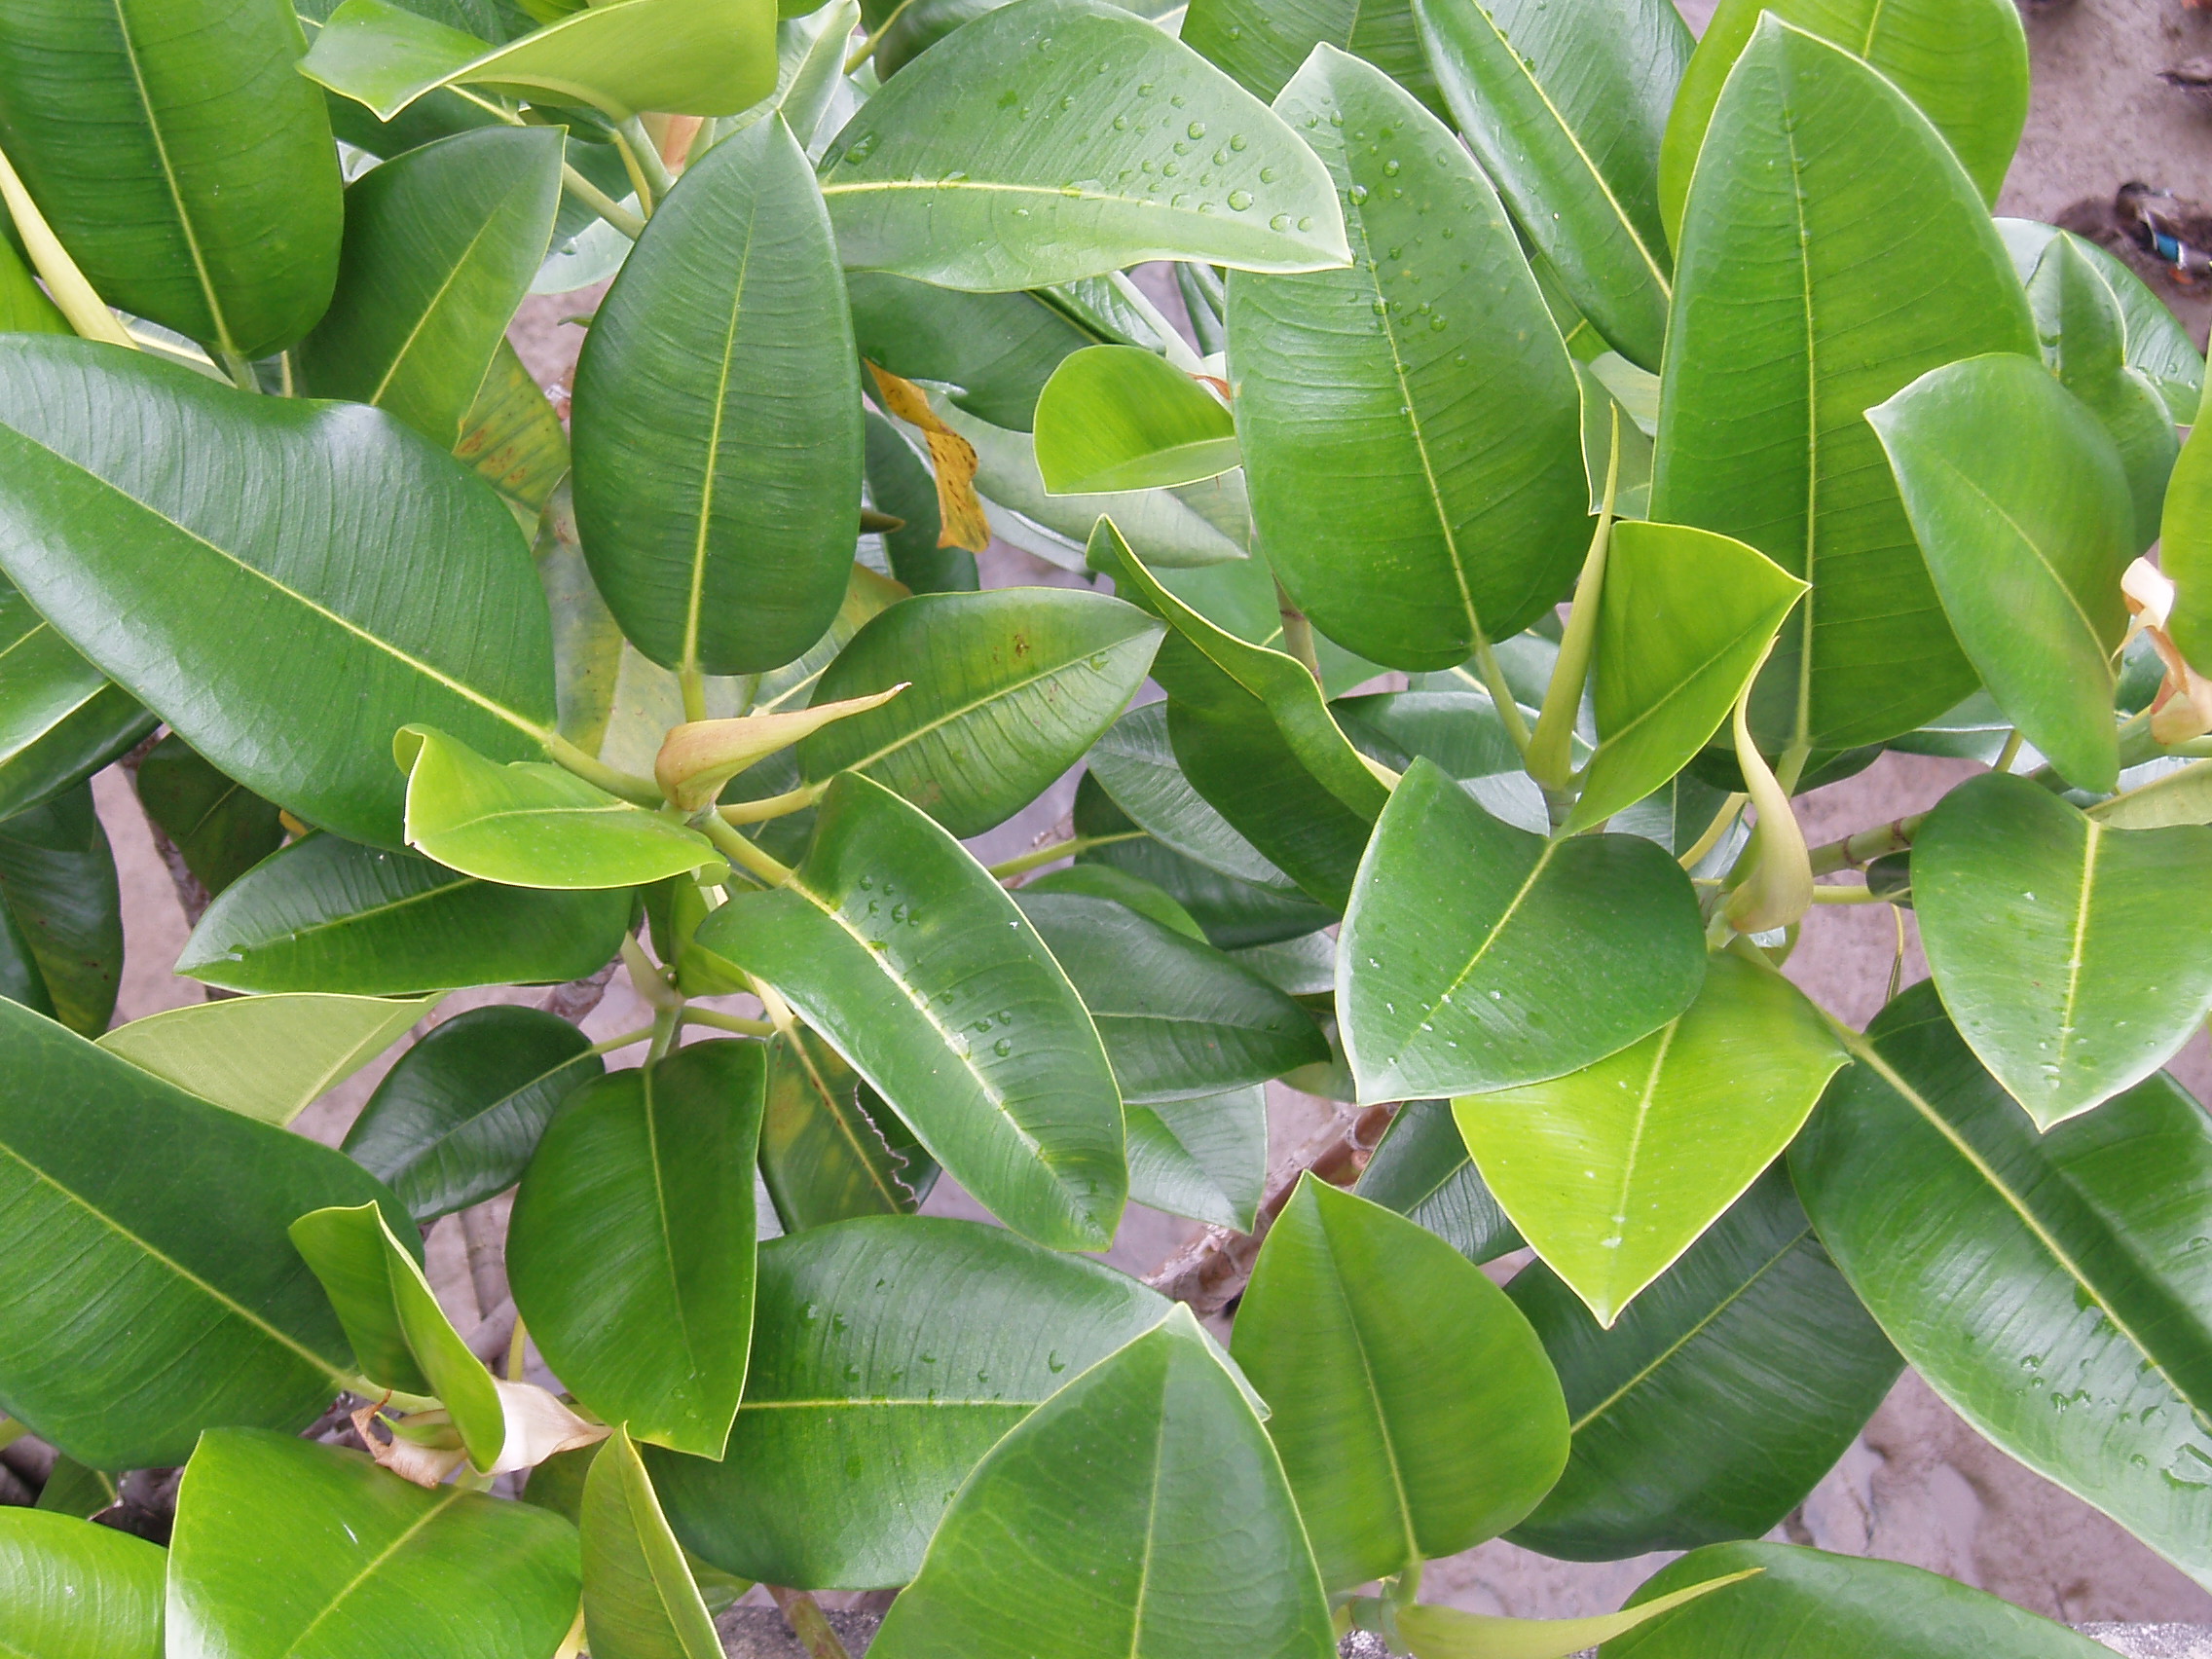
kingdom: Plantae
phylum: Tracheophyta
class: Magnoliopsida
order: Rosales
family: Moraceae
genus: Ficus
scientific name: Ficus macrophylla
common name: Moreton bay fig
